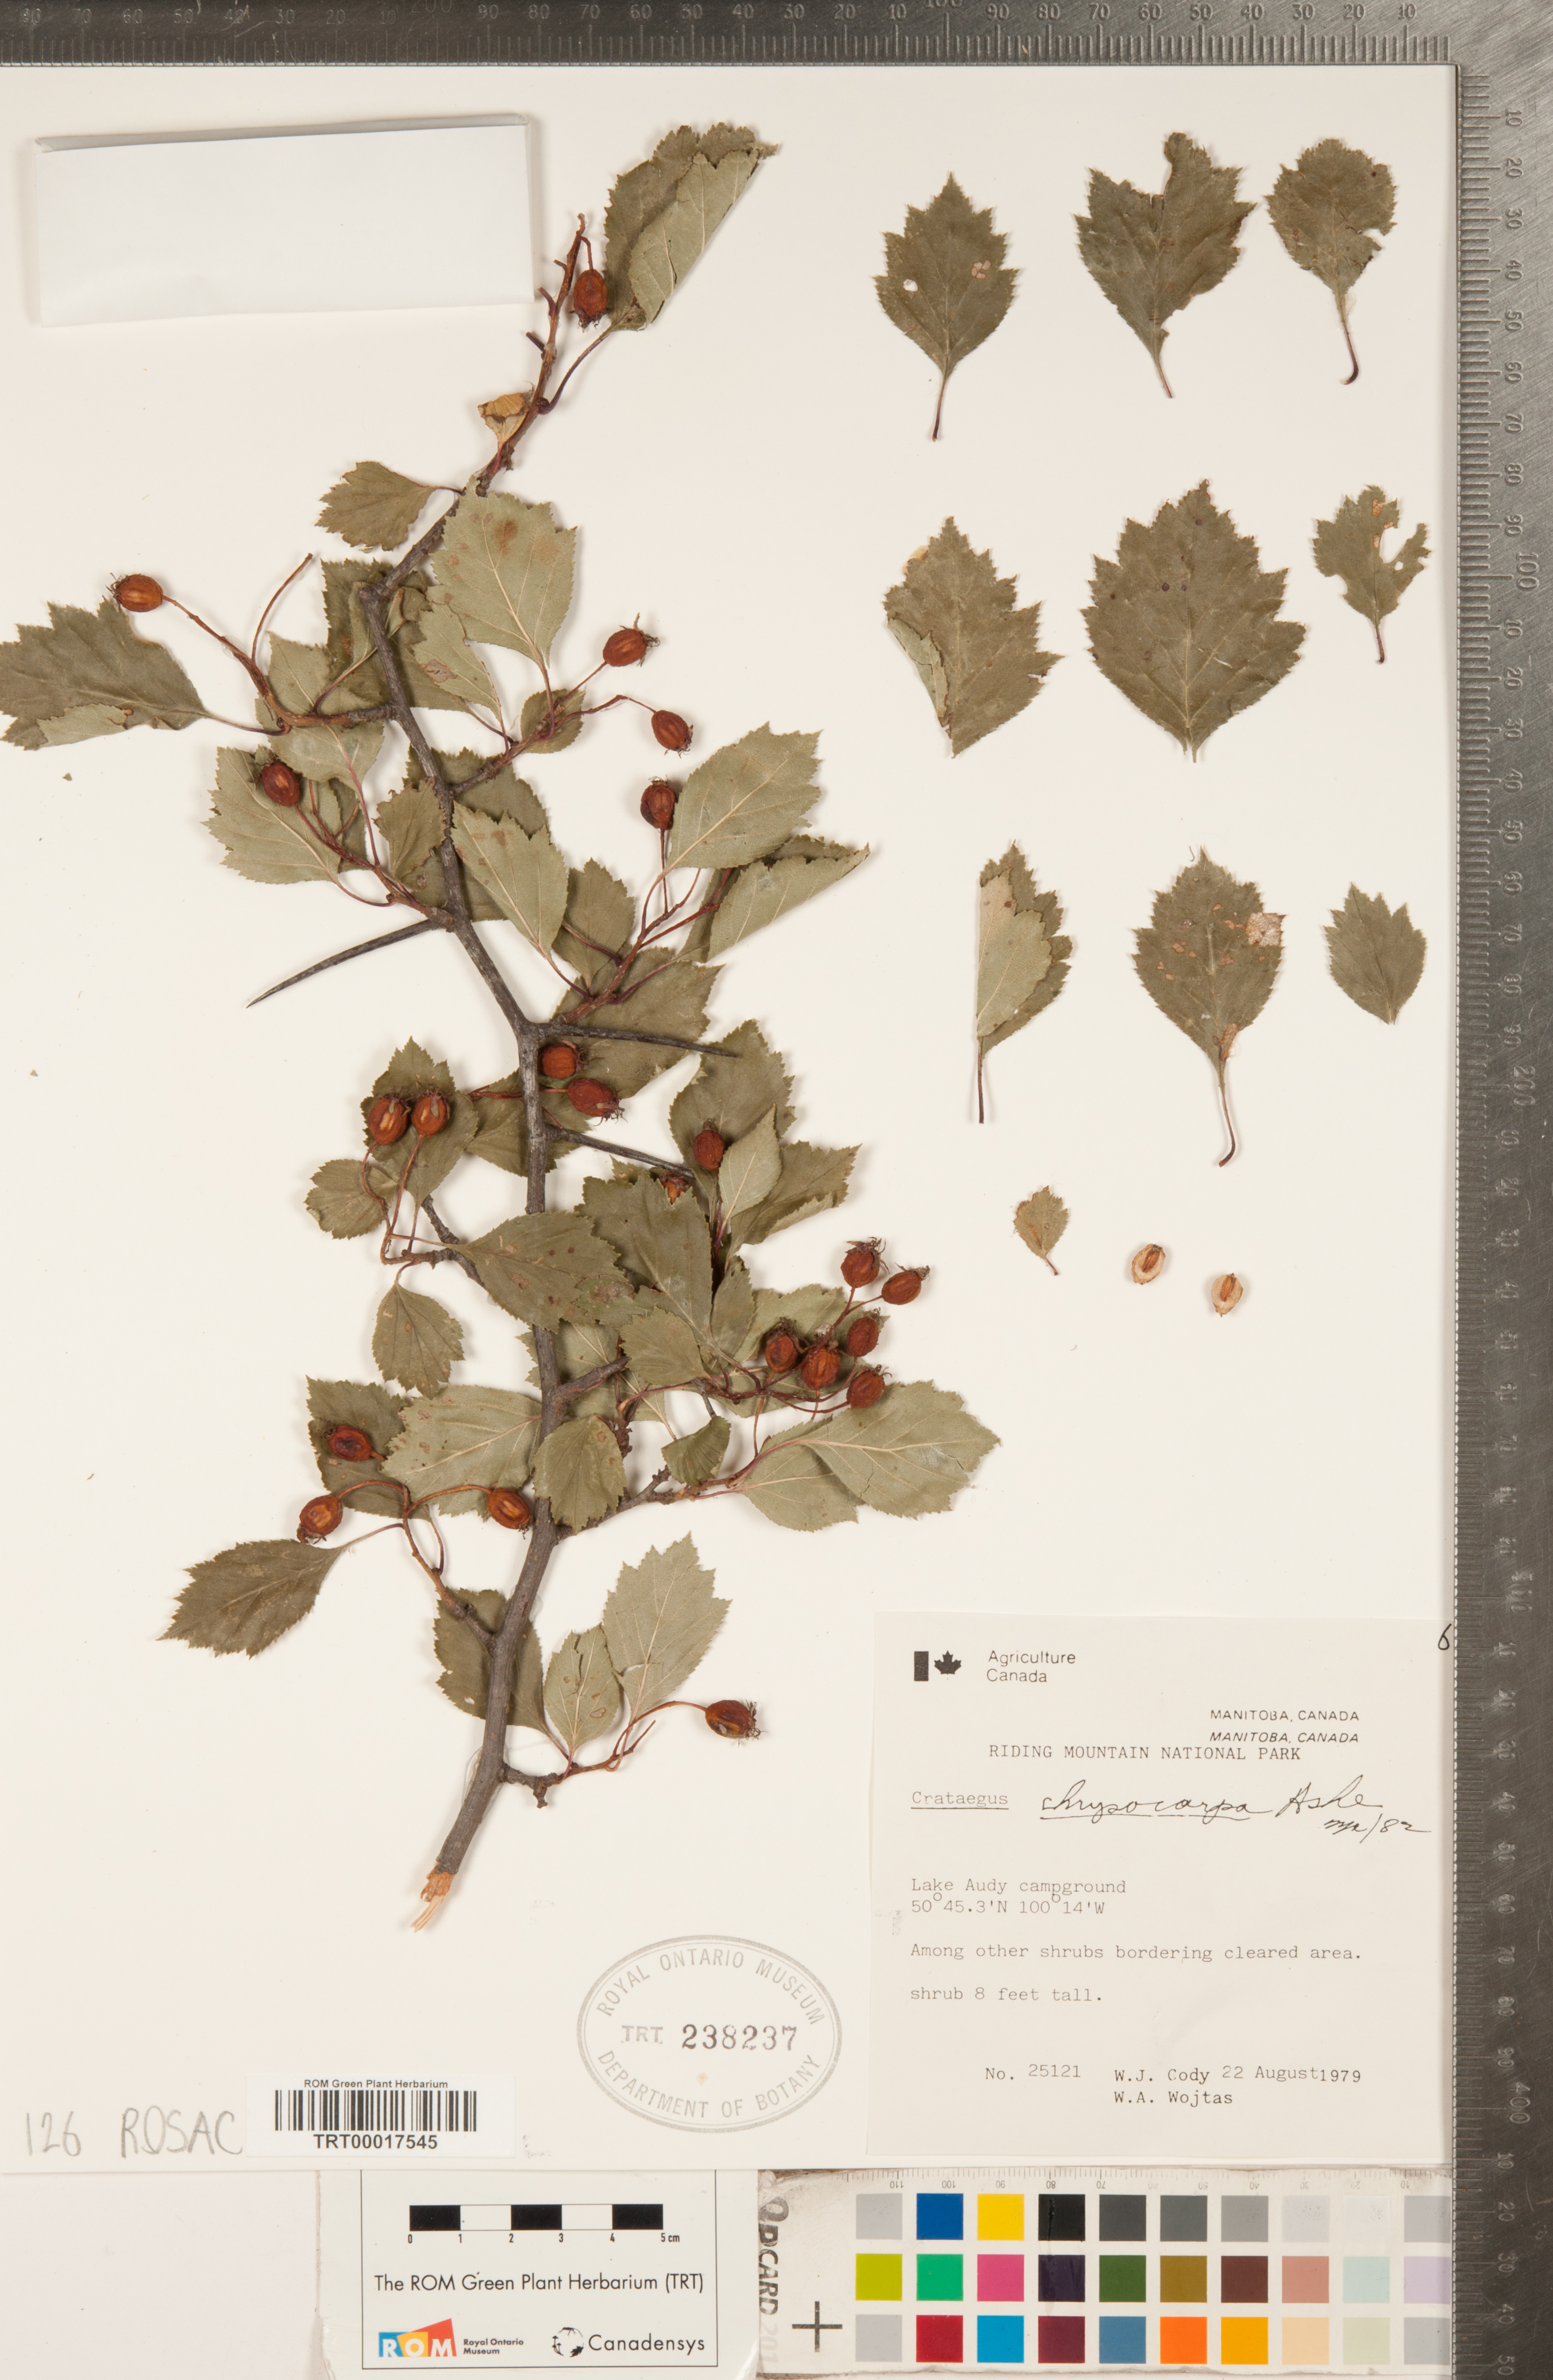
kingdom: Plantae
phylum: Tracheophyta
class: Magnoliopsida
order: Rosales
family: Rosaceae
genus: Crataegus
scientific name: Crataegus chrysocarpa
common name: Fire-berry hawthorn
